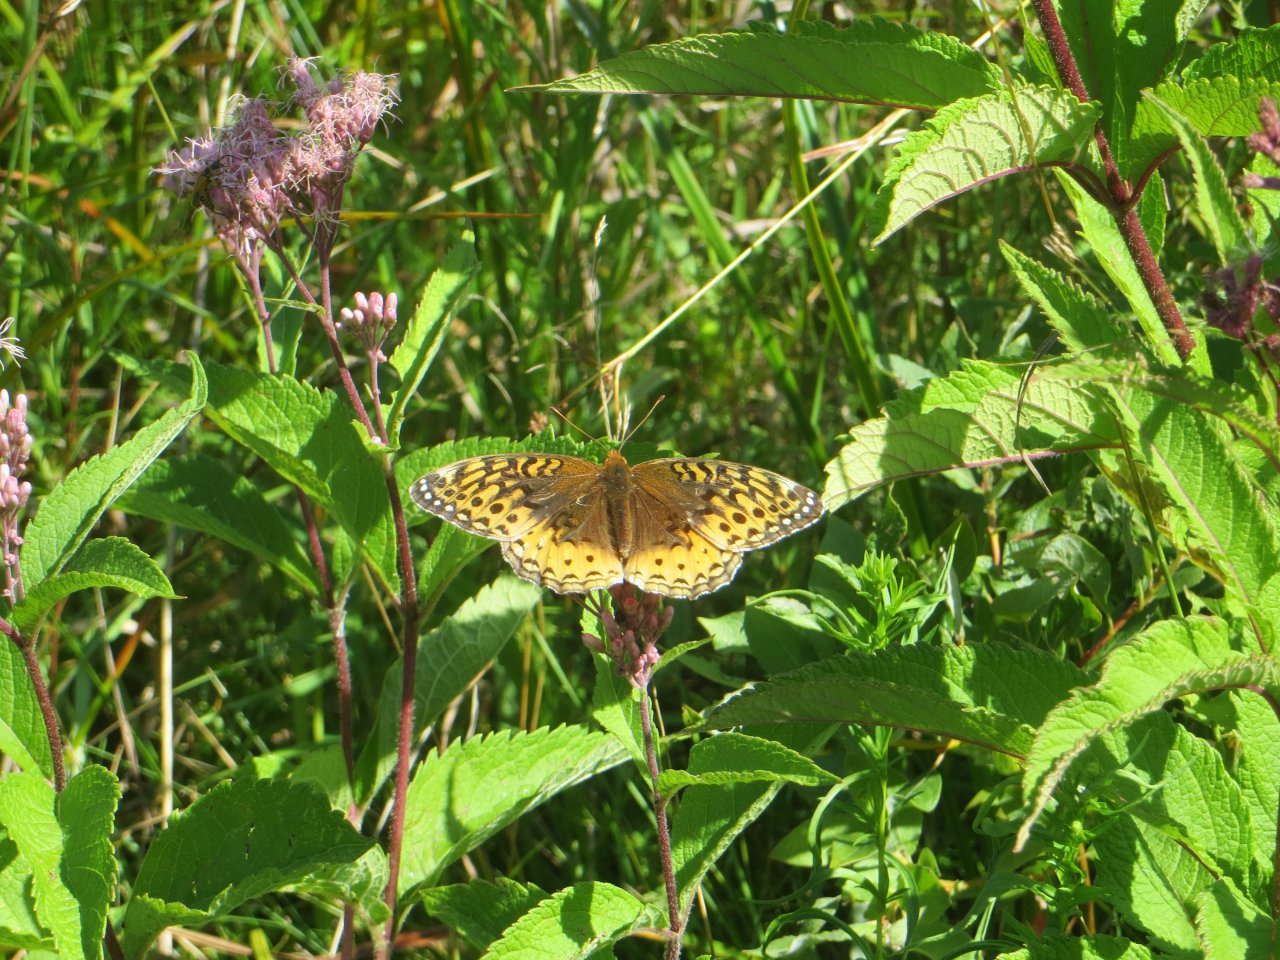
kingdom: Animalia
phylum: Arthropoda
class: Insecta
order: Lepidoptera
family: Nymphalidae
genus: Speyeria
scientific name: Speyeria aphrodite
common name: Aphrodite Fritillary
